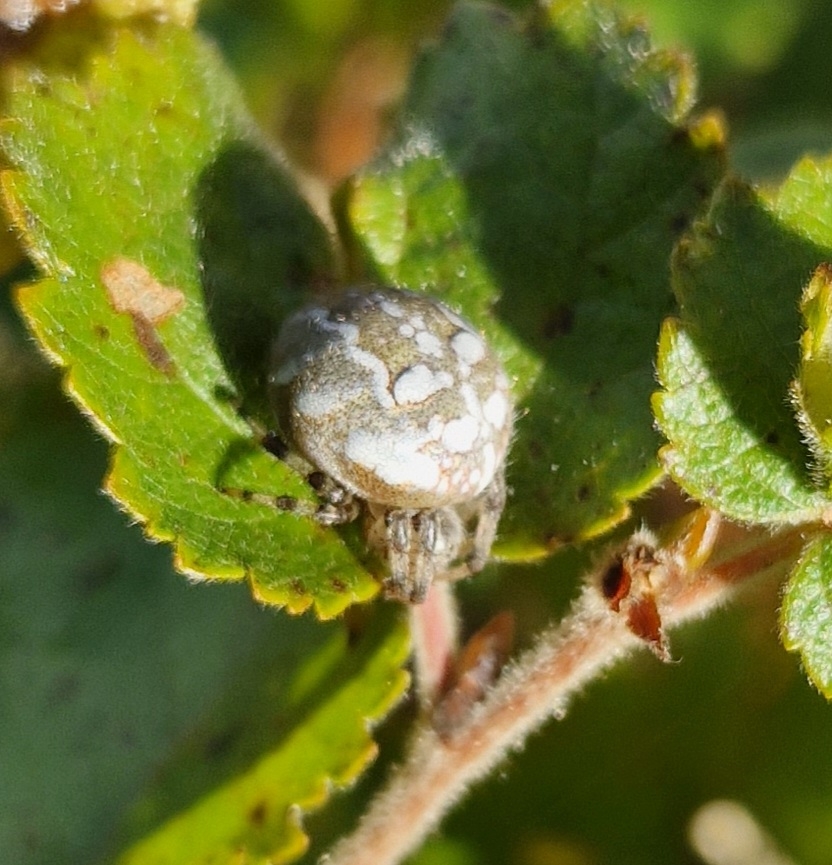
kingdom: Animalia
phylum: Arthropoda
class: Arachnida
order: Araneae
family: Araneidae
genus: Araneus
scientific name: Araneus quadratus
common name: Kvadratedderkop
